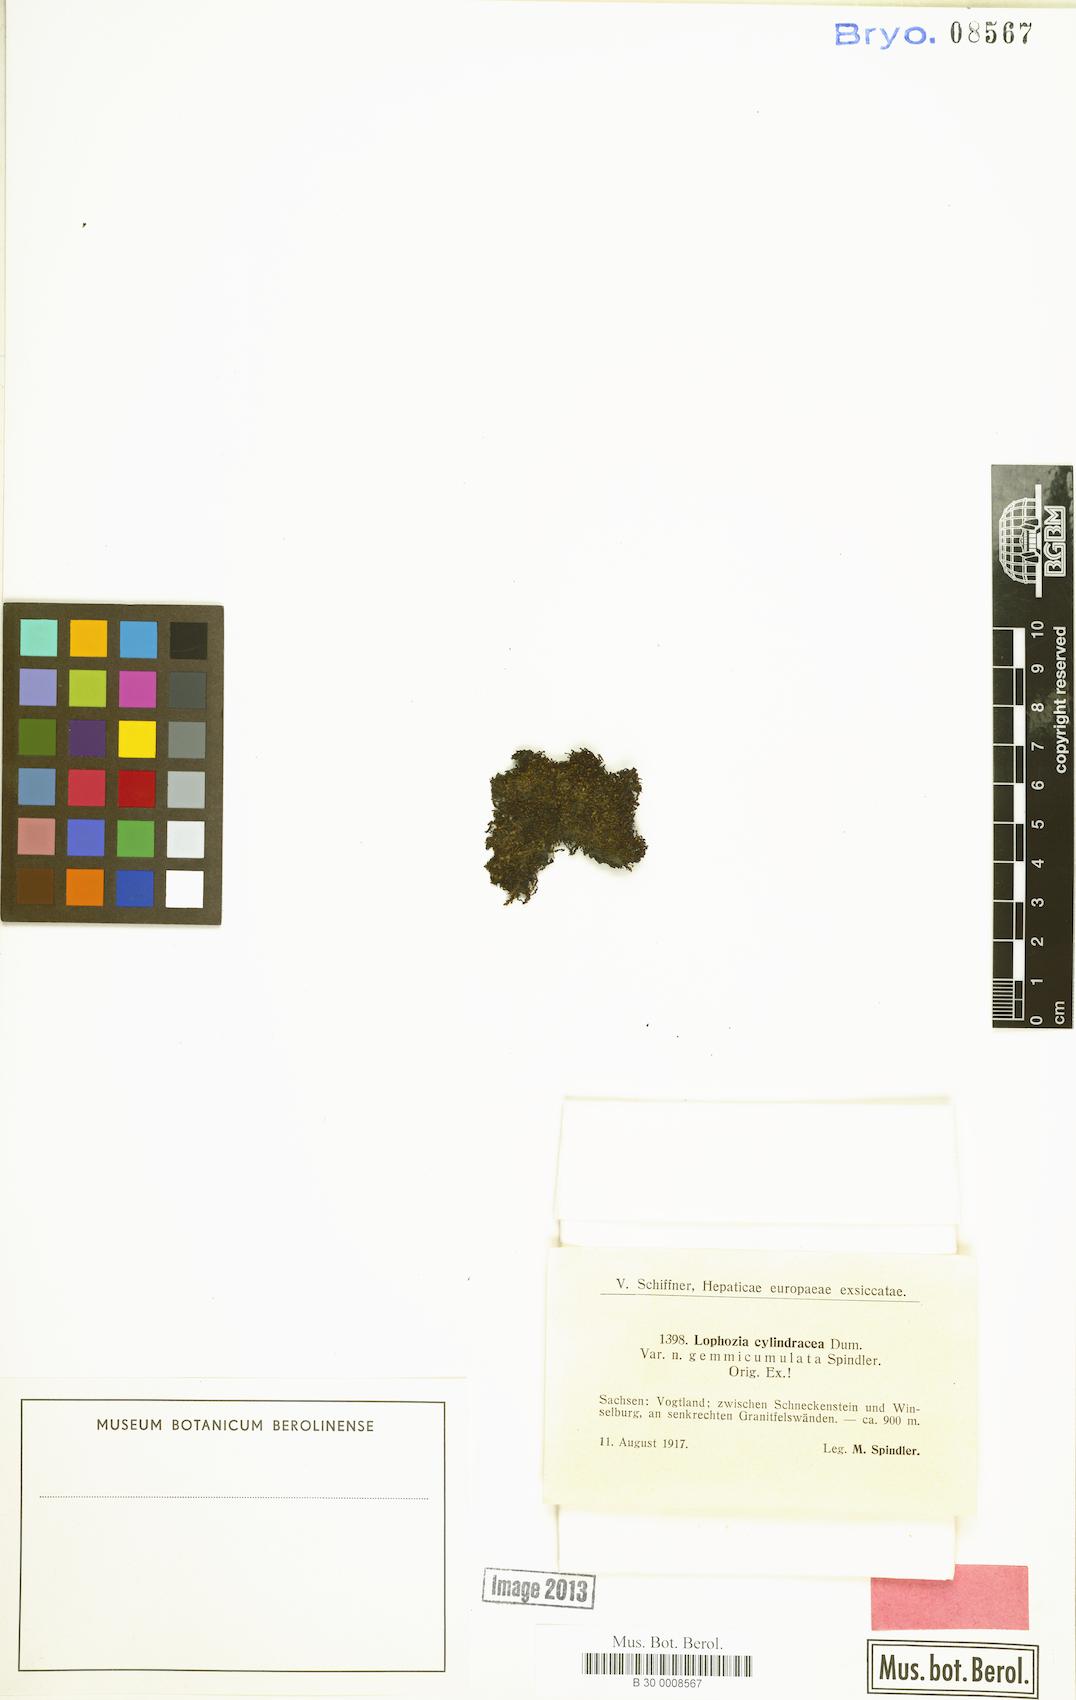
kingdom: Plantae
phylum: Marchantiophyta
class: Jungermanniopsida
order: Jungermanniales
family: Lophoziaceae
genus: Lophoziopsis
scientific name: Lophoziopsis excisa
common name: Cut notchwort
